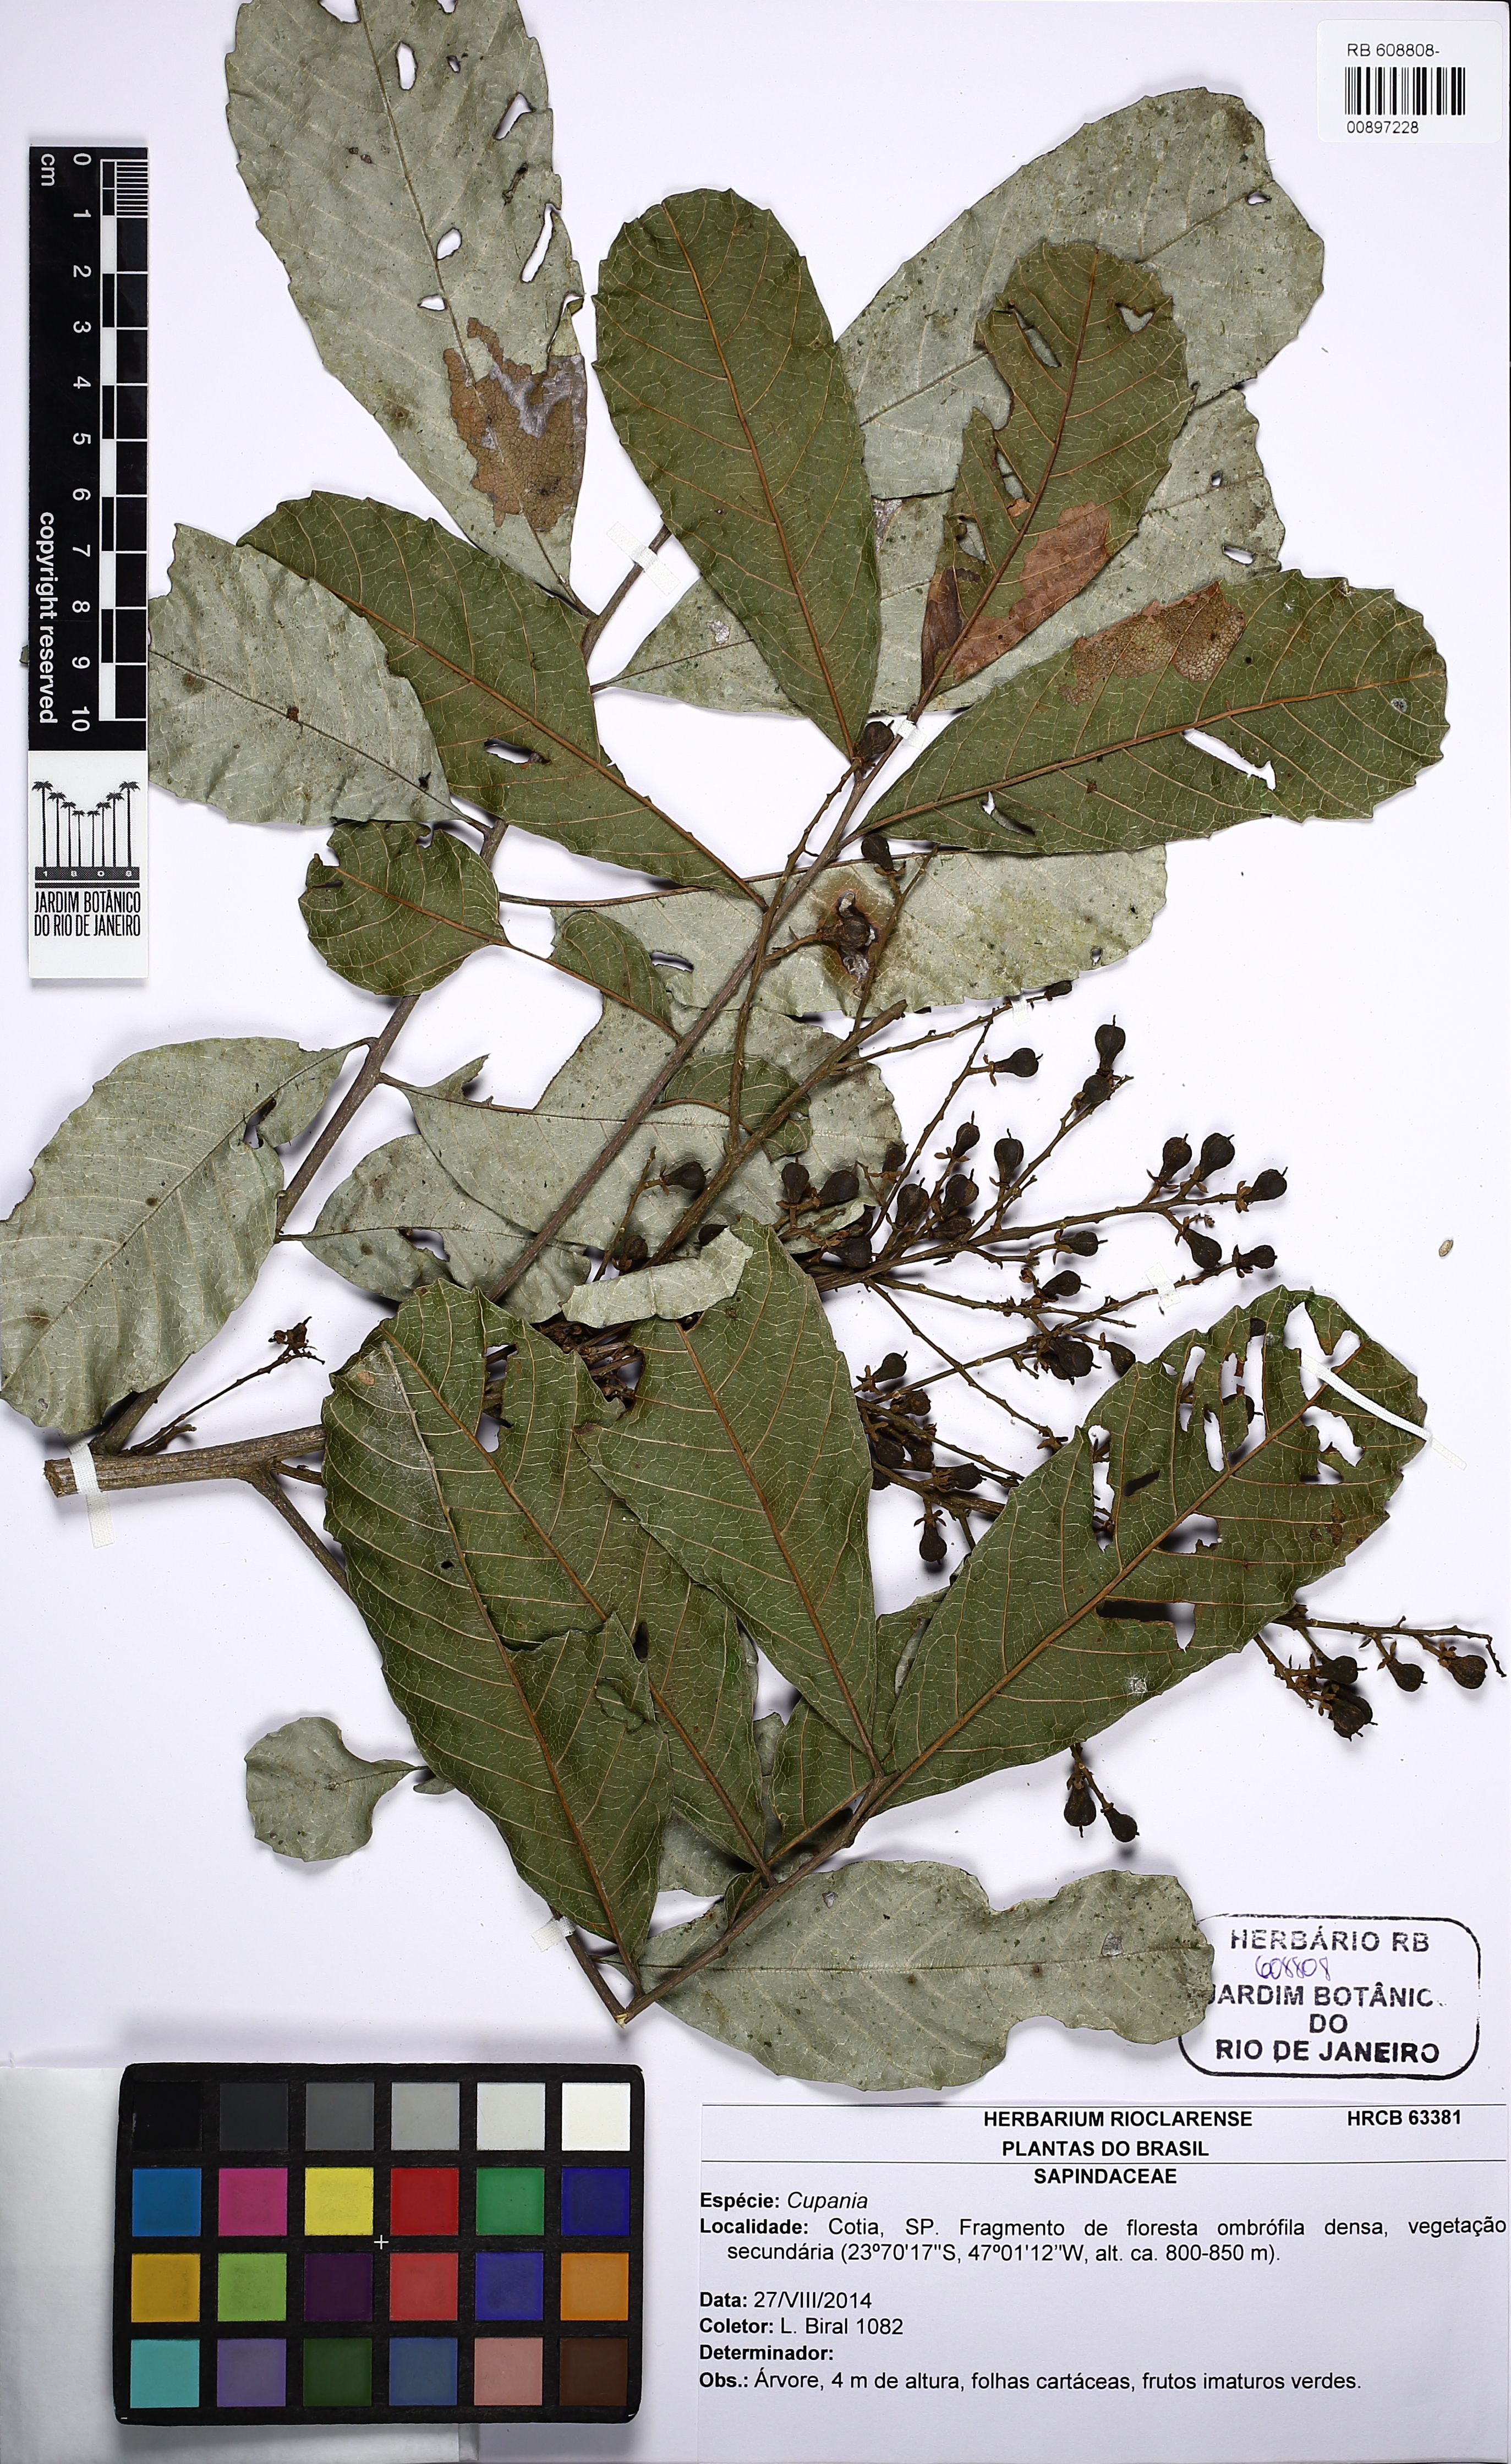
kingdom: Plantae
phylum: Tracheophyta
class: Magnoliopsida
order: Sapindales
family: Sapindaceae
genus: Cupania
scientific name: Cupania
